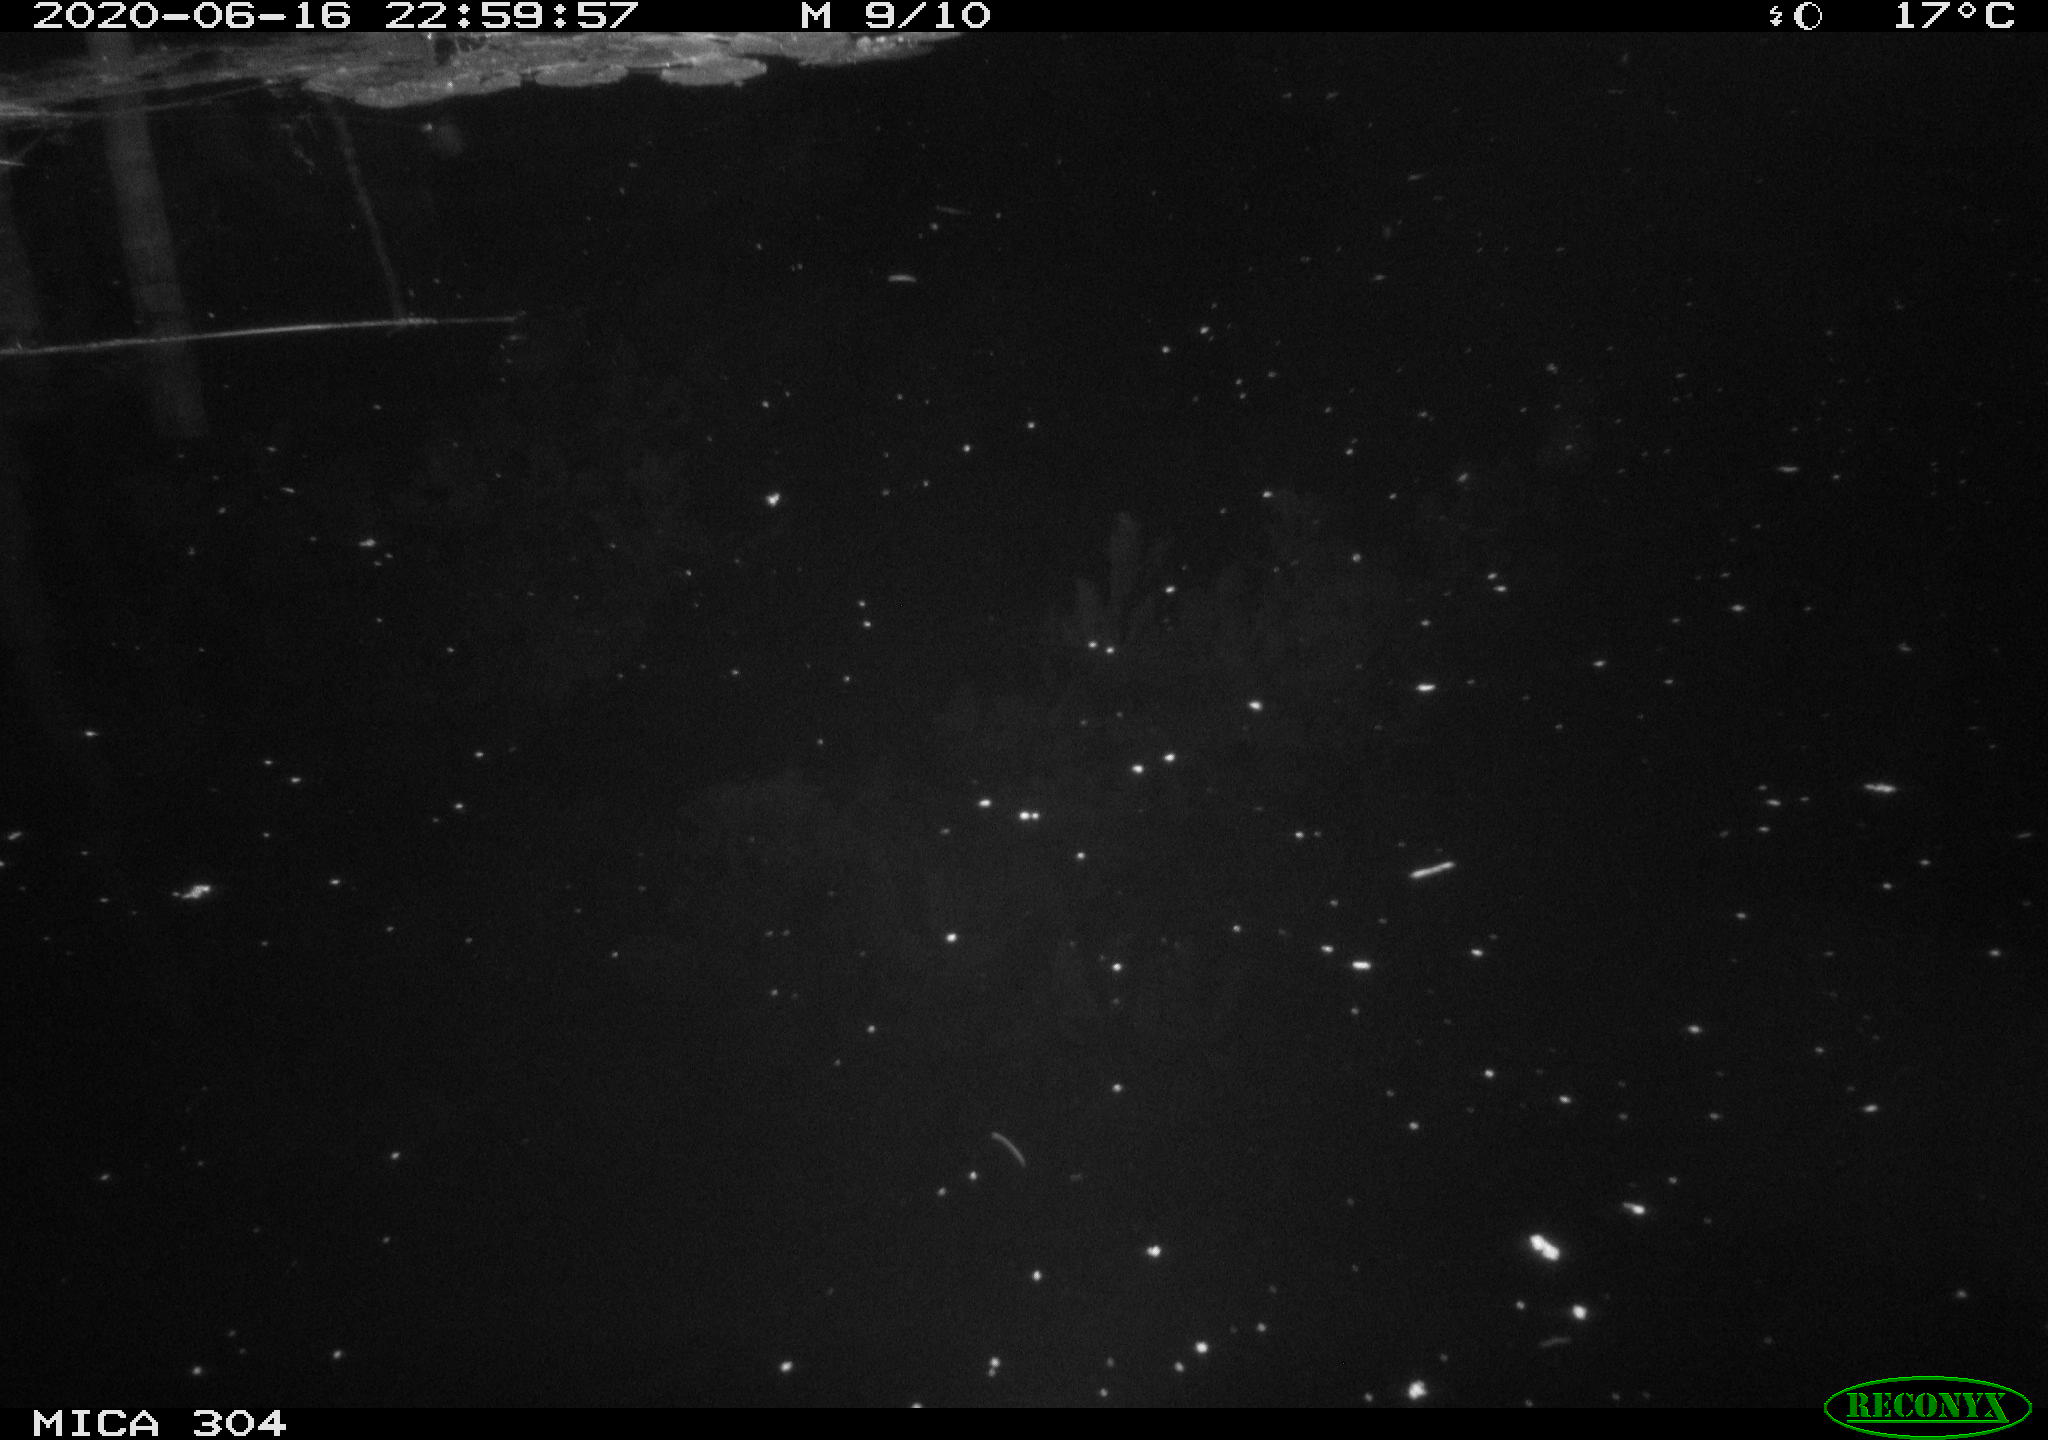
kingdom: Animalia
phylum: Chordata
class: Aves
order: Anseriformes
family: Anatidae
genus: Anas
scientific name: Anas platyrhynchos
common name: Mallard
